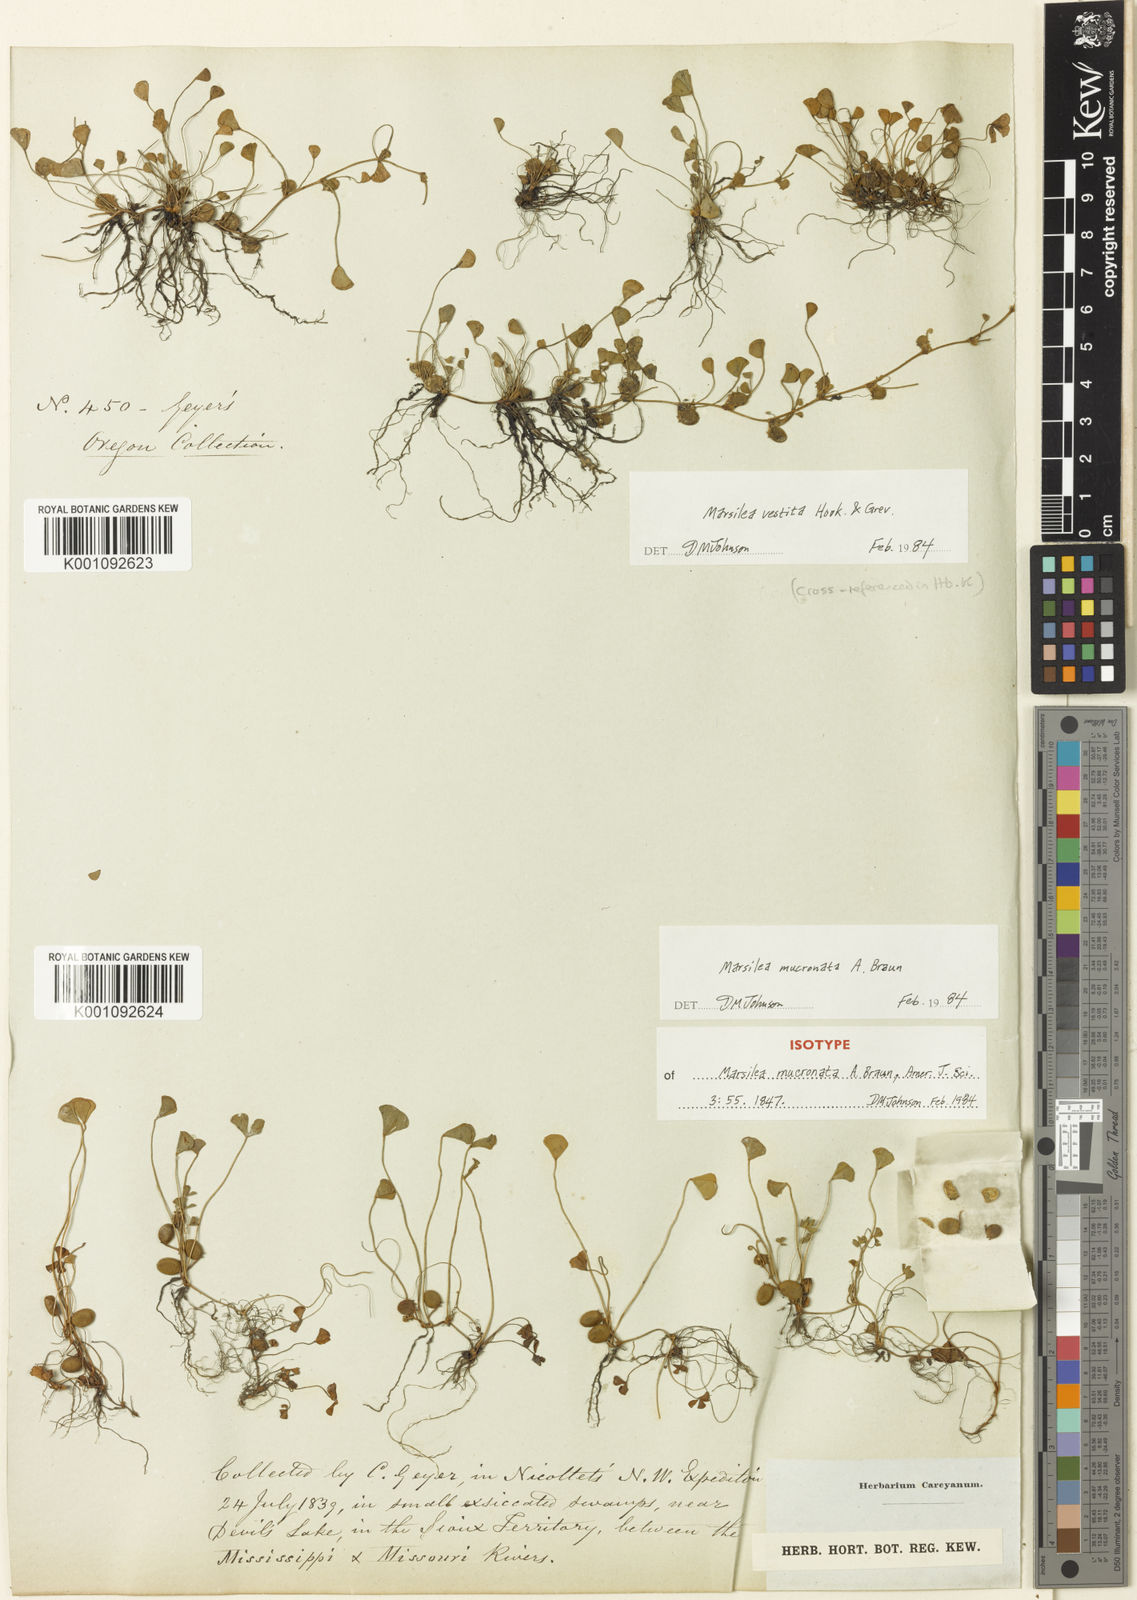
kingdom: Plantae
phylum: Tracheophyta
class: Polypodiopsida
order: Salviniales
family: Marsileaceae
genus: Marsilea
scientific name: Marsilea vestita
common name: Hooked-pepperwort
